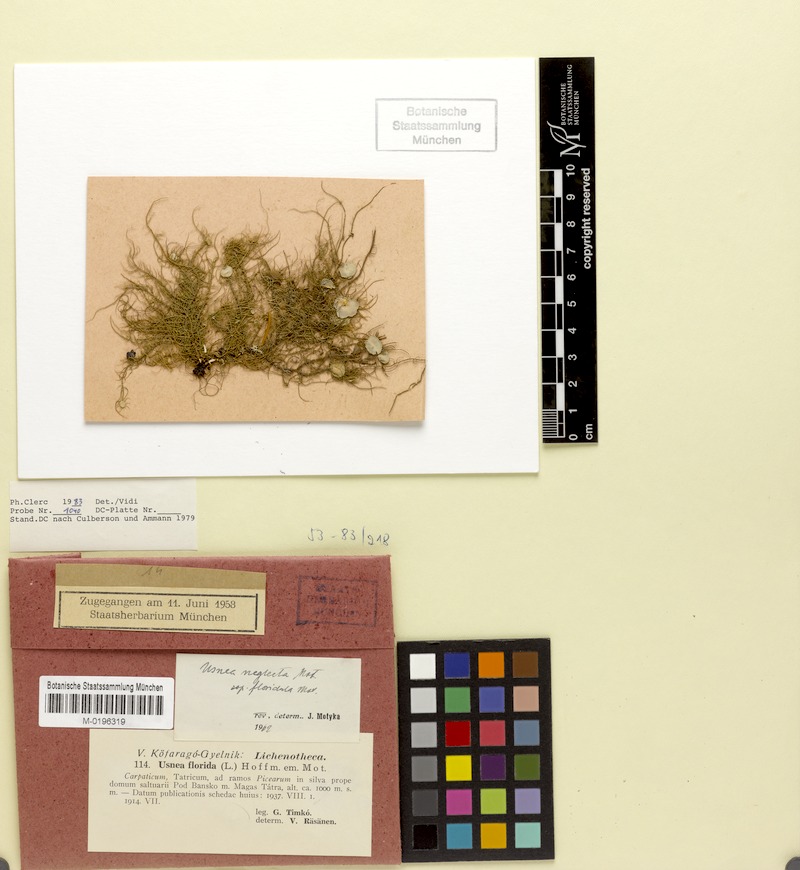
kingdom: Fungi
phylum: Ascomycota
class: Lecanoromycetes
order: Lecanorales
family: Parmeliaceae
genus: Usnea
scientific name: Usnea intermedia
